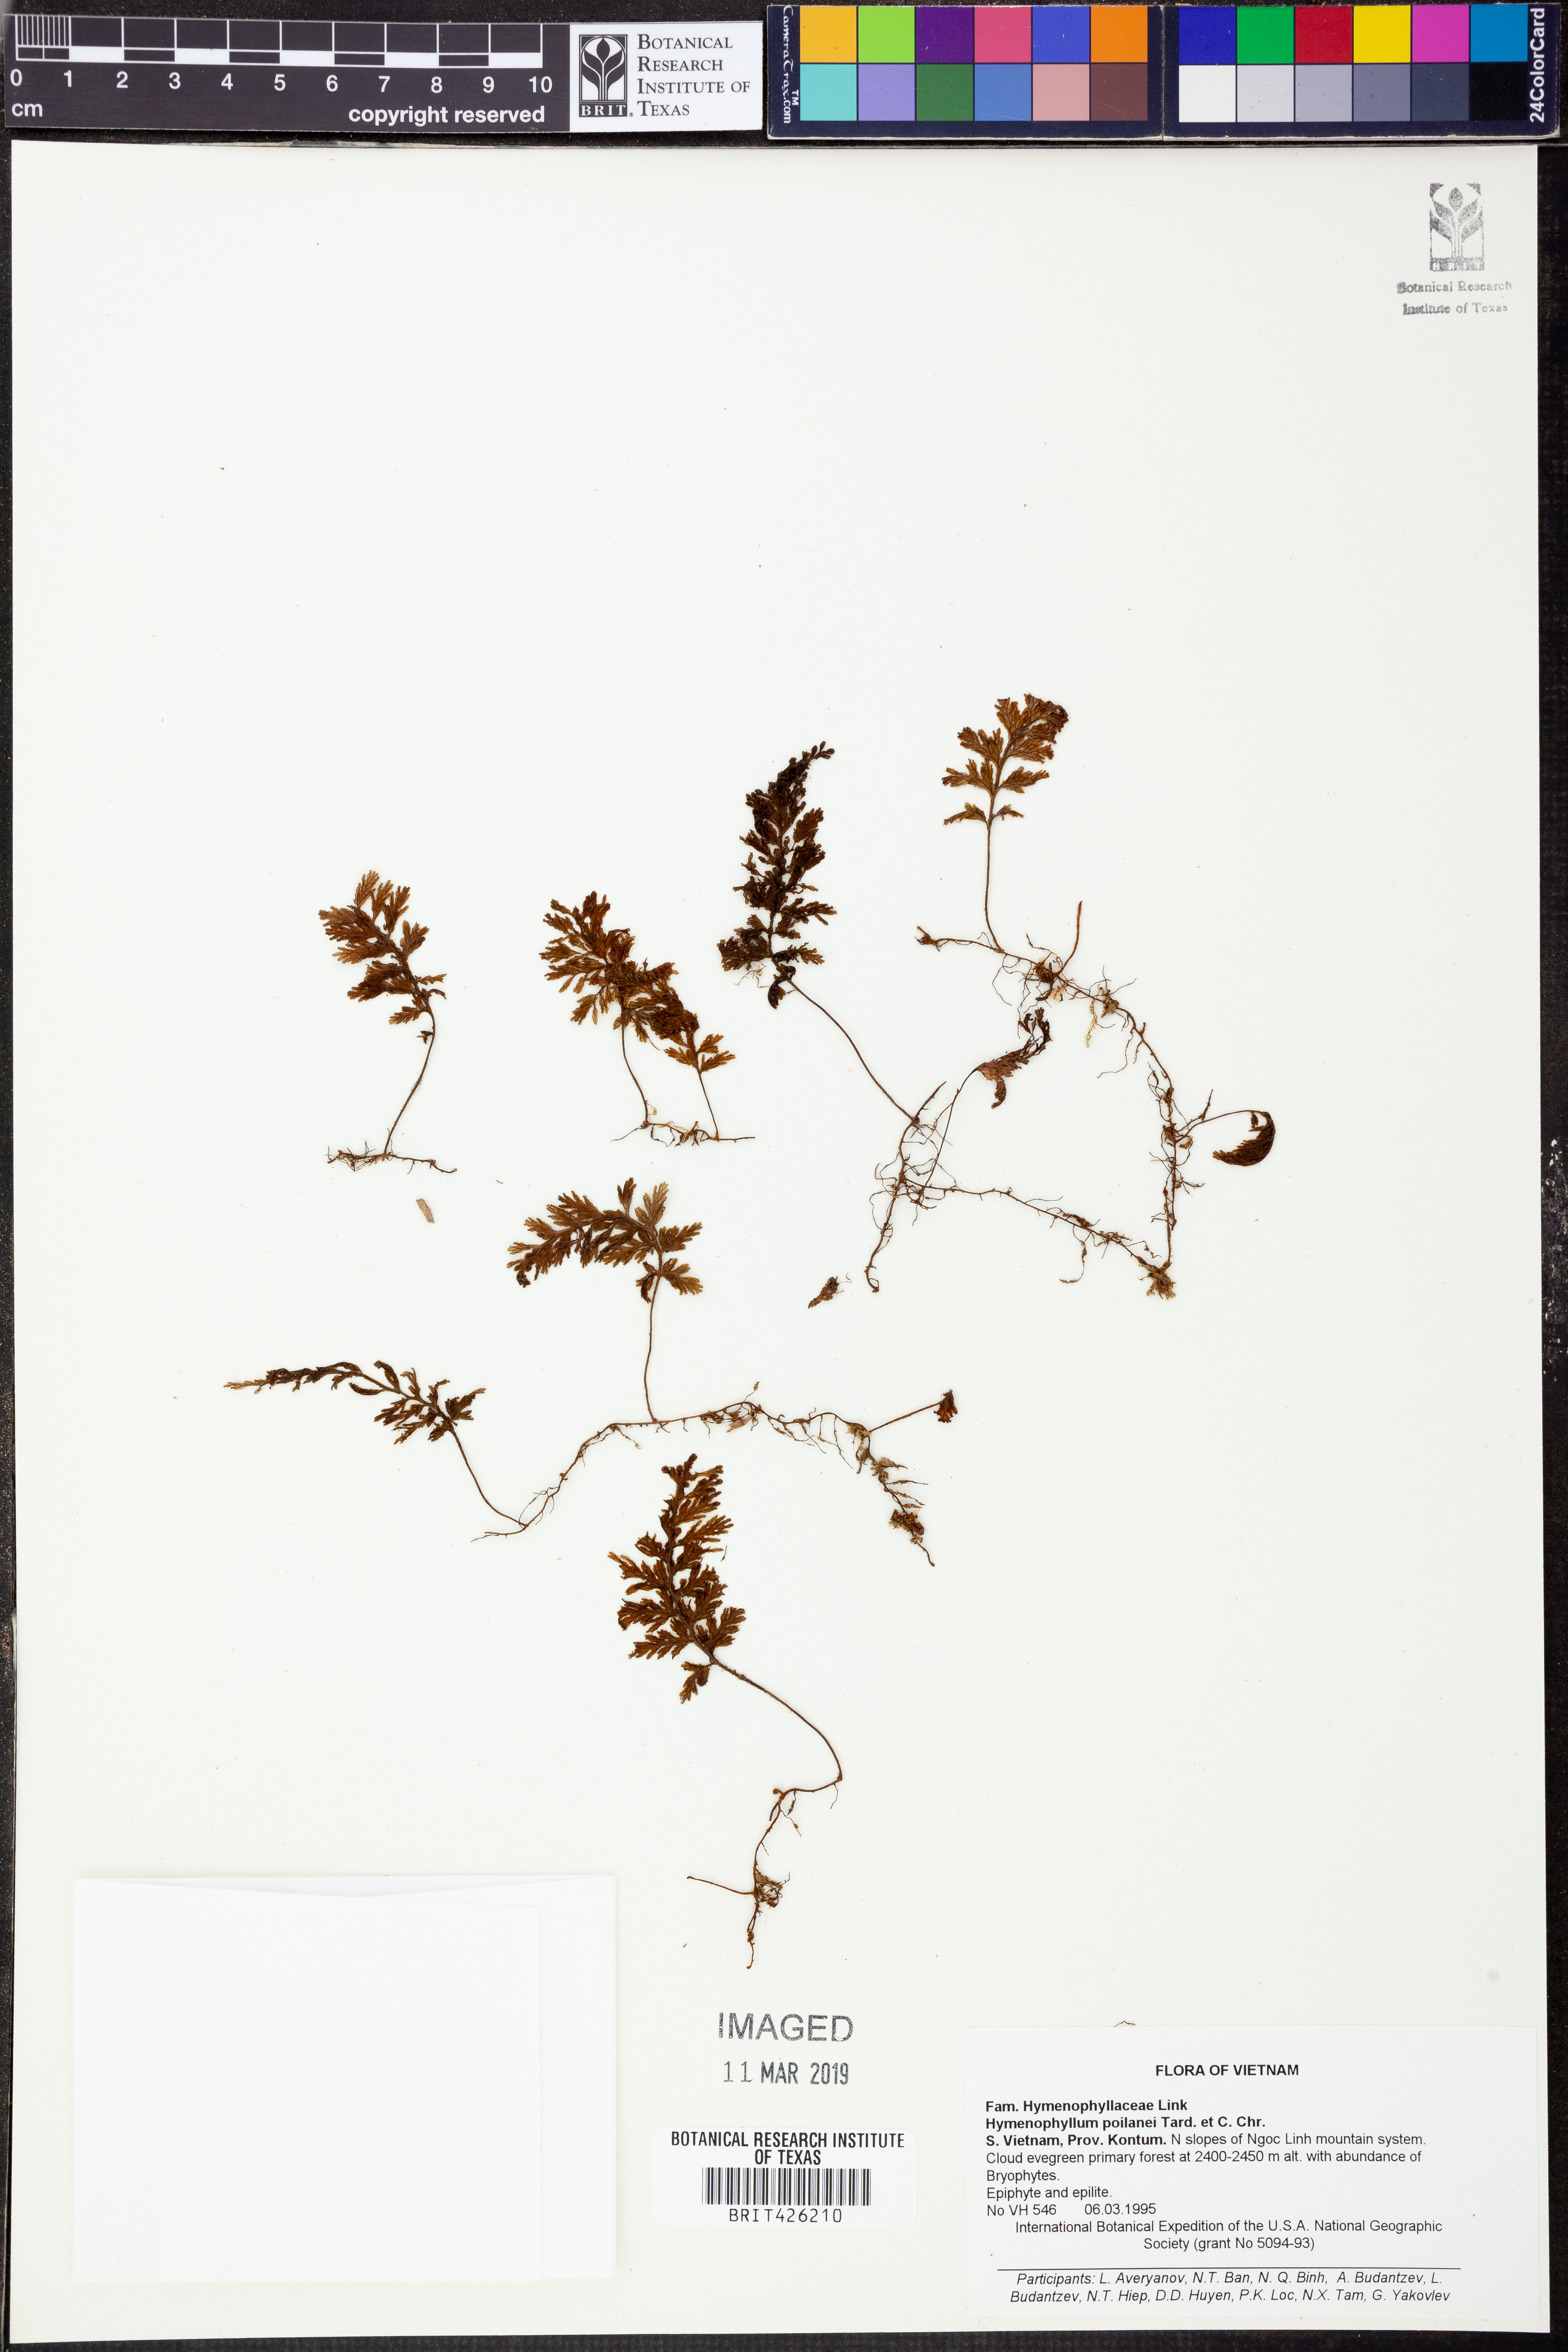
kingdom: Plantae
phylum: Tracheophyta
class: Polypodiopsida
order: Hymenophyllales
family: Hymenophyllaceae
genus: Hymenophyllum
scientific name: Hymenophyllum barbatum
